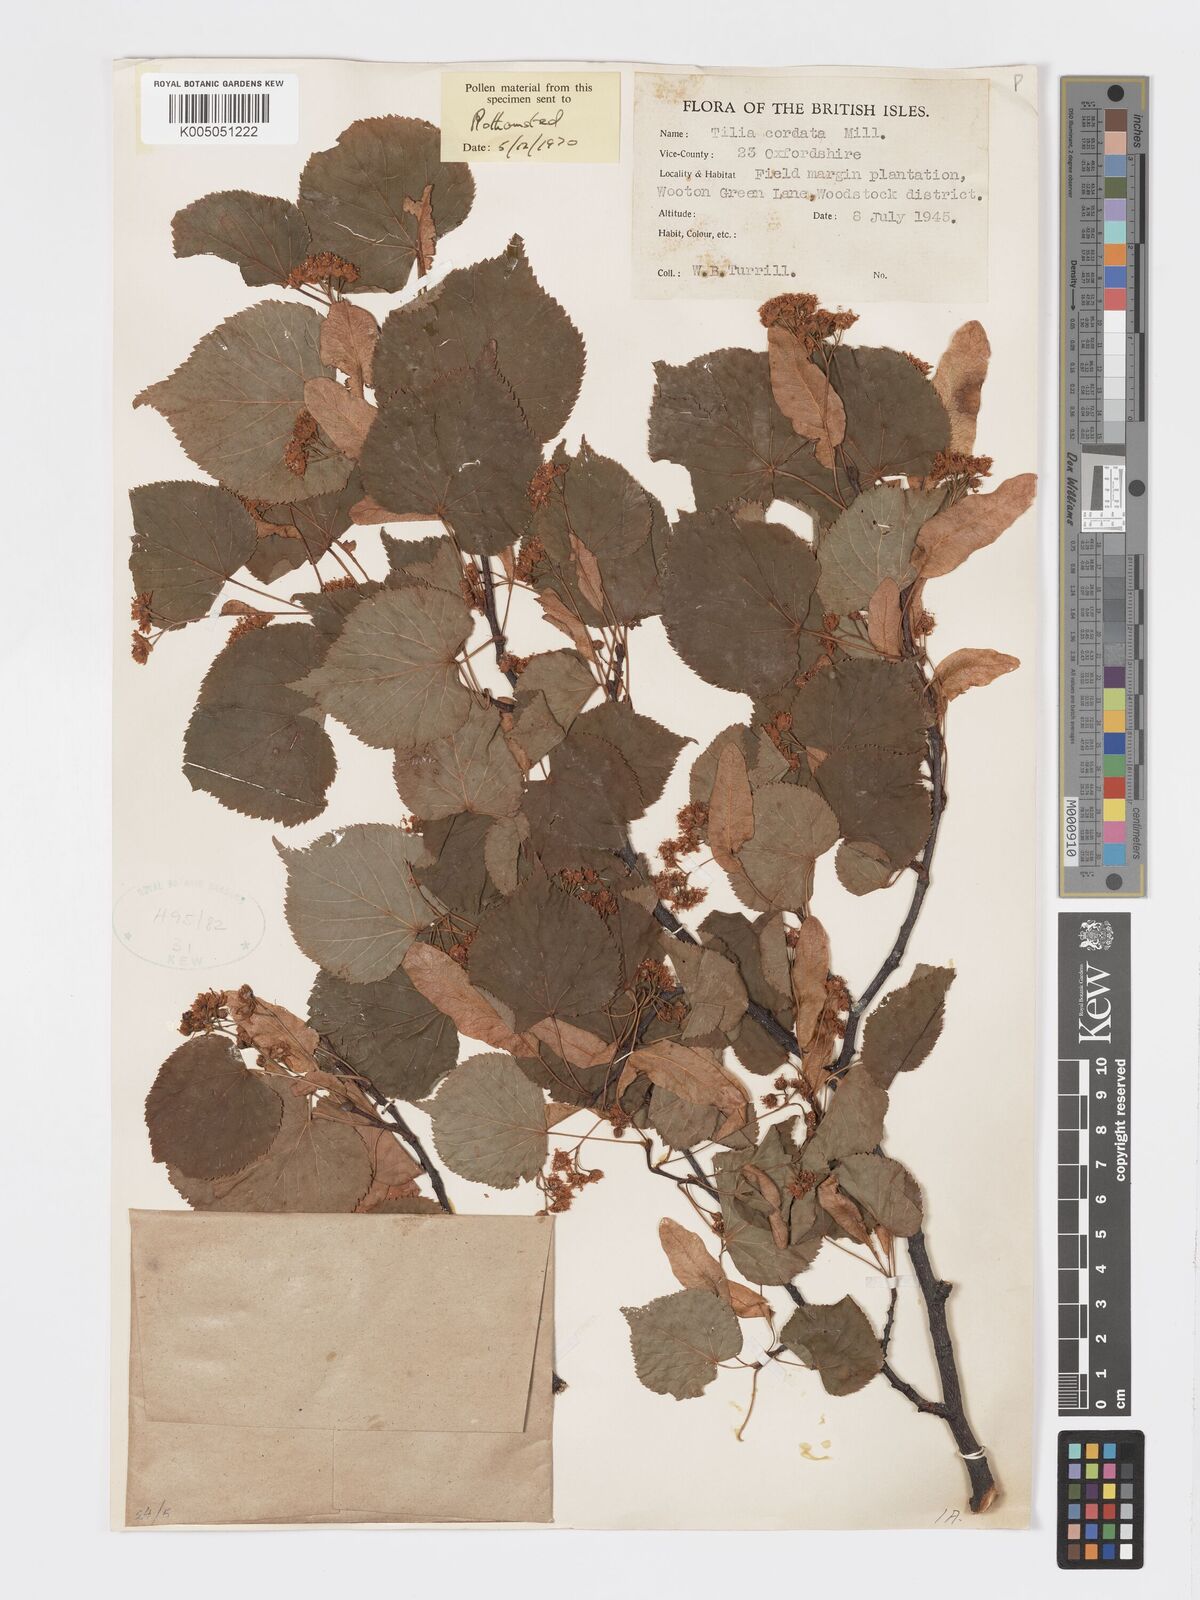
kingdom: Plantae
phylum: Tracheophyta
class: Magnoliopsida
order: Malvales
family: Malvaceae
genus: Tilia
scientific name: Tilia cordata
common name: Small-leaved lime
